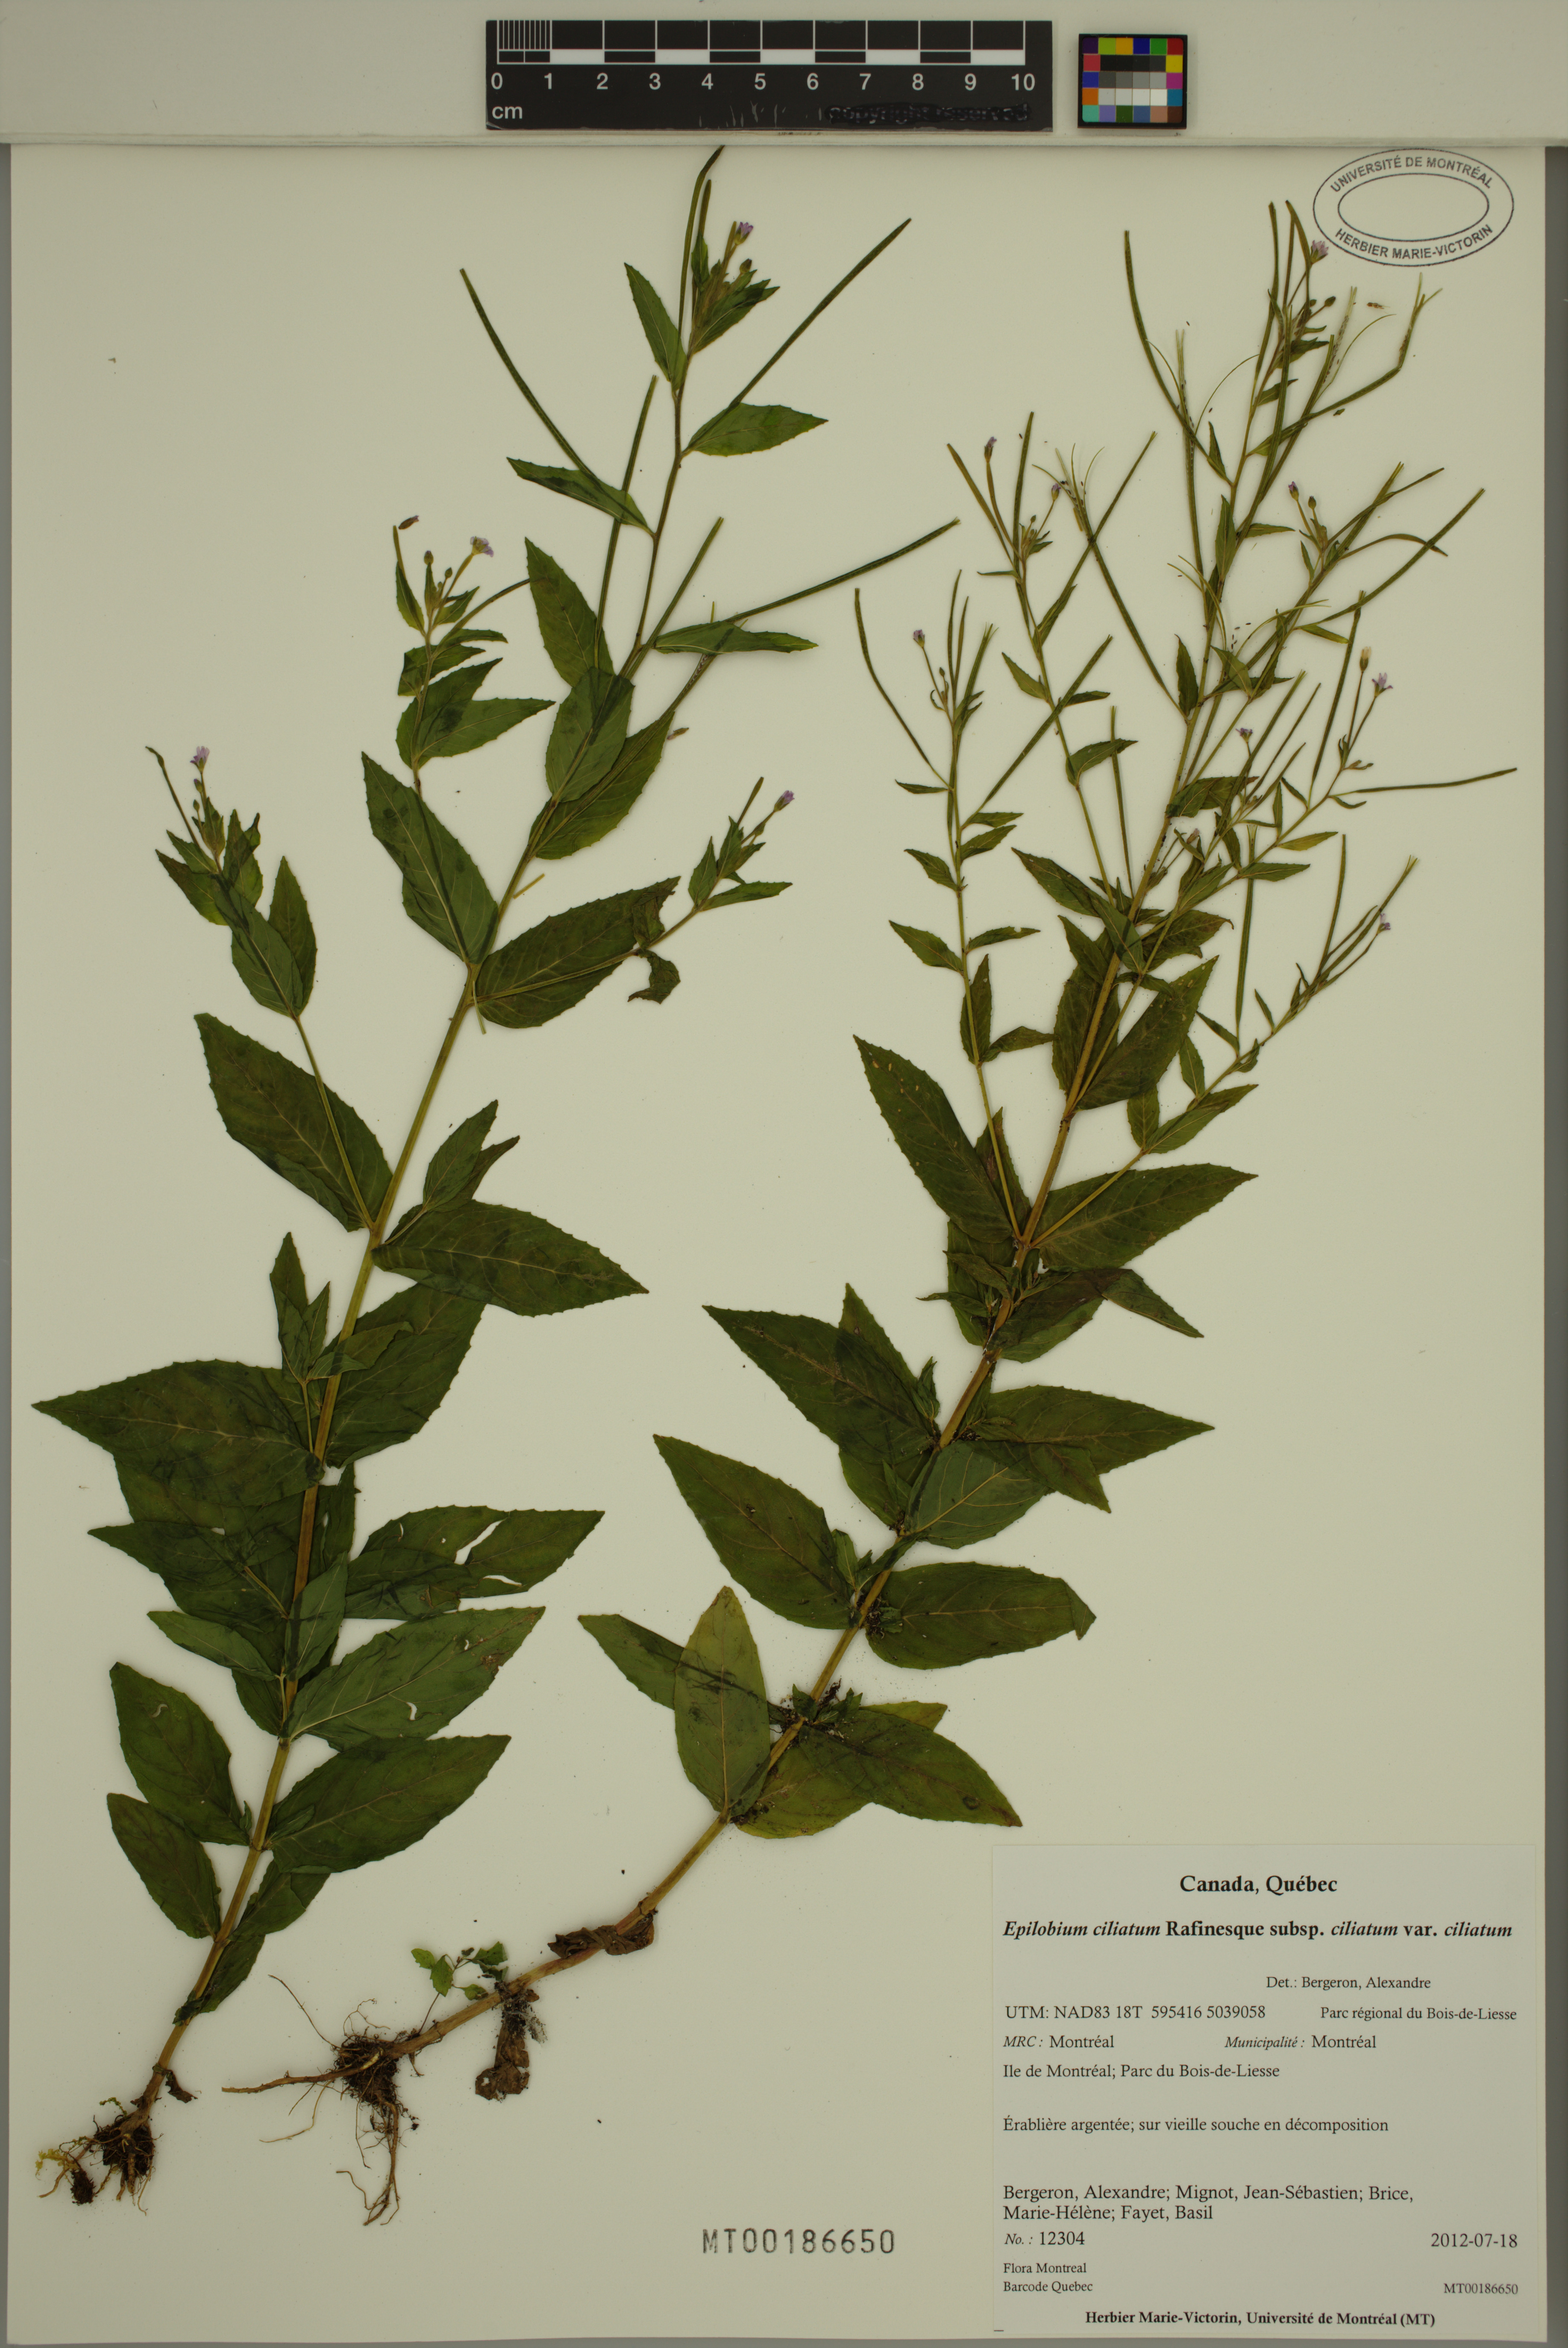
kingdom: Plantae
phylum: Tracheophyta
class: Magnoliopsida
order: Myrtales
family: Onagraceae
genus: Epilobium
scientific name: Epilobium ciliatum
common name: American willowherb
